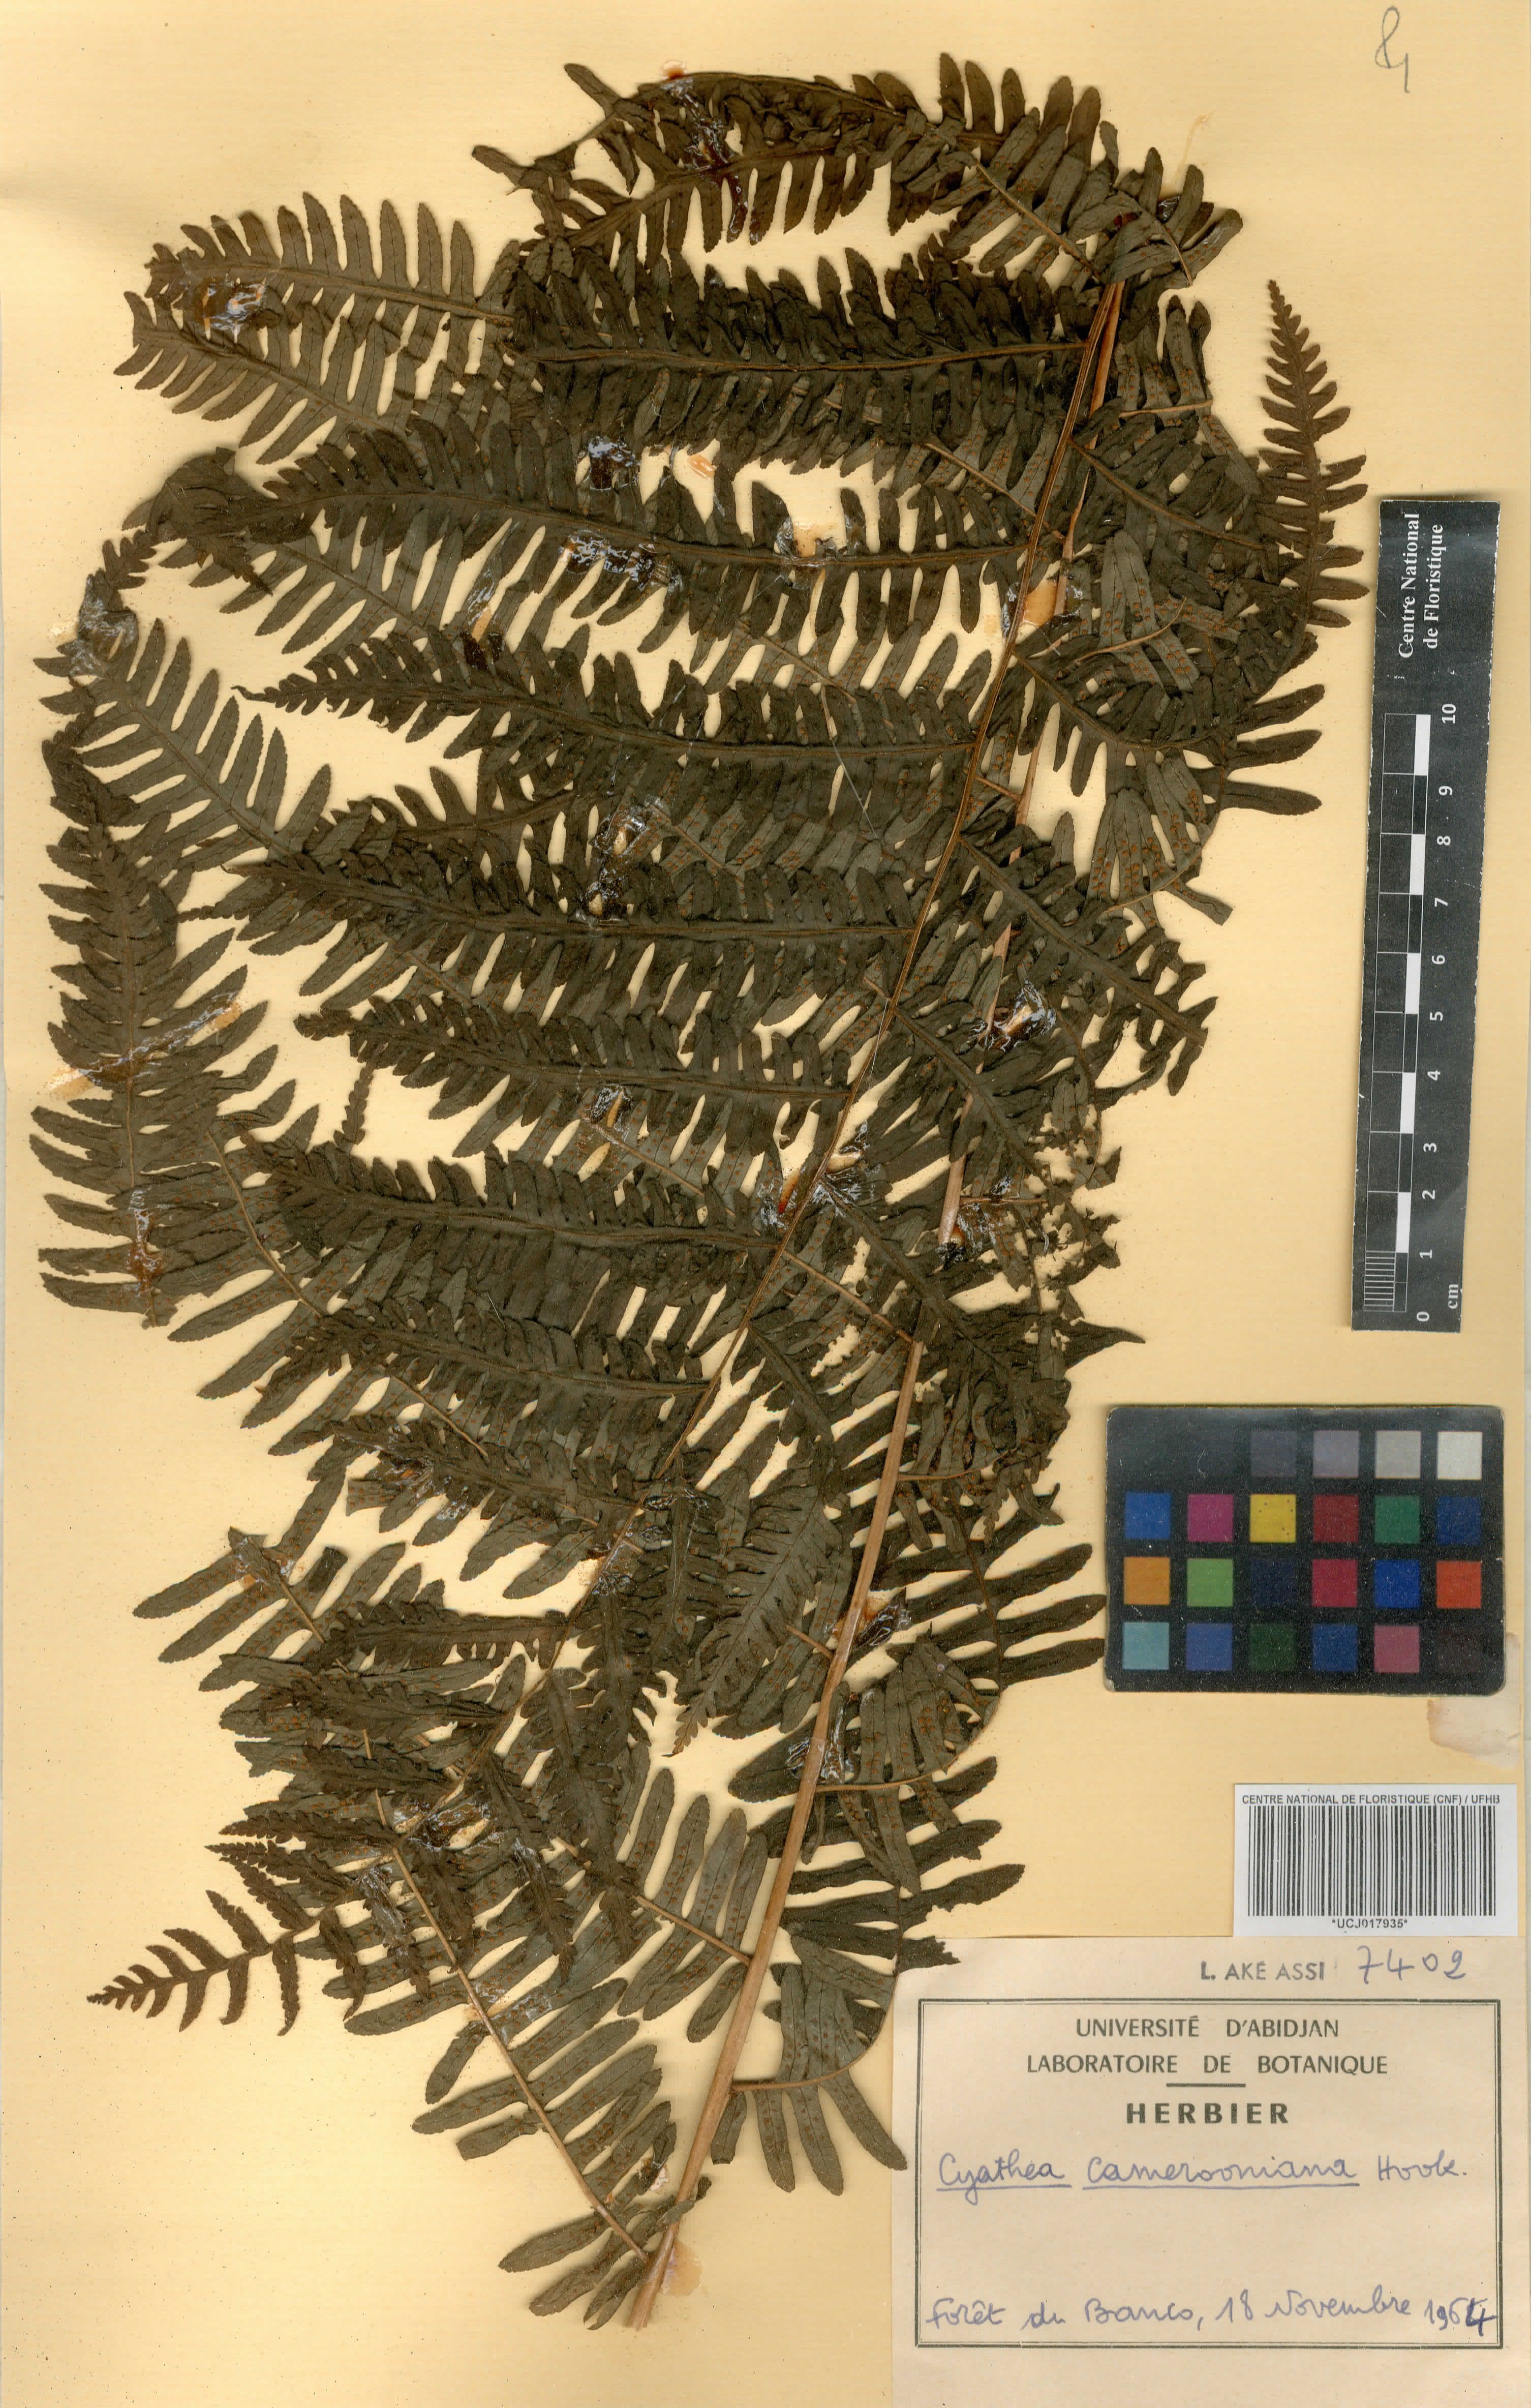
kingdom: Plantae
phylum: Tracheophyta
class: Polypodiopsida
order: Cyatheales
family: Cyatheaceae
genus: Alsophila
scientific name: Alsophila camerooniana
